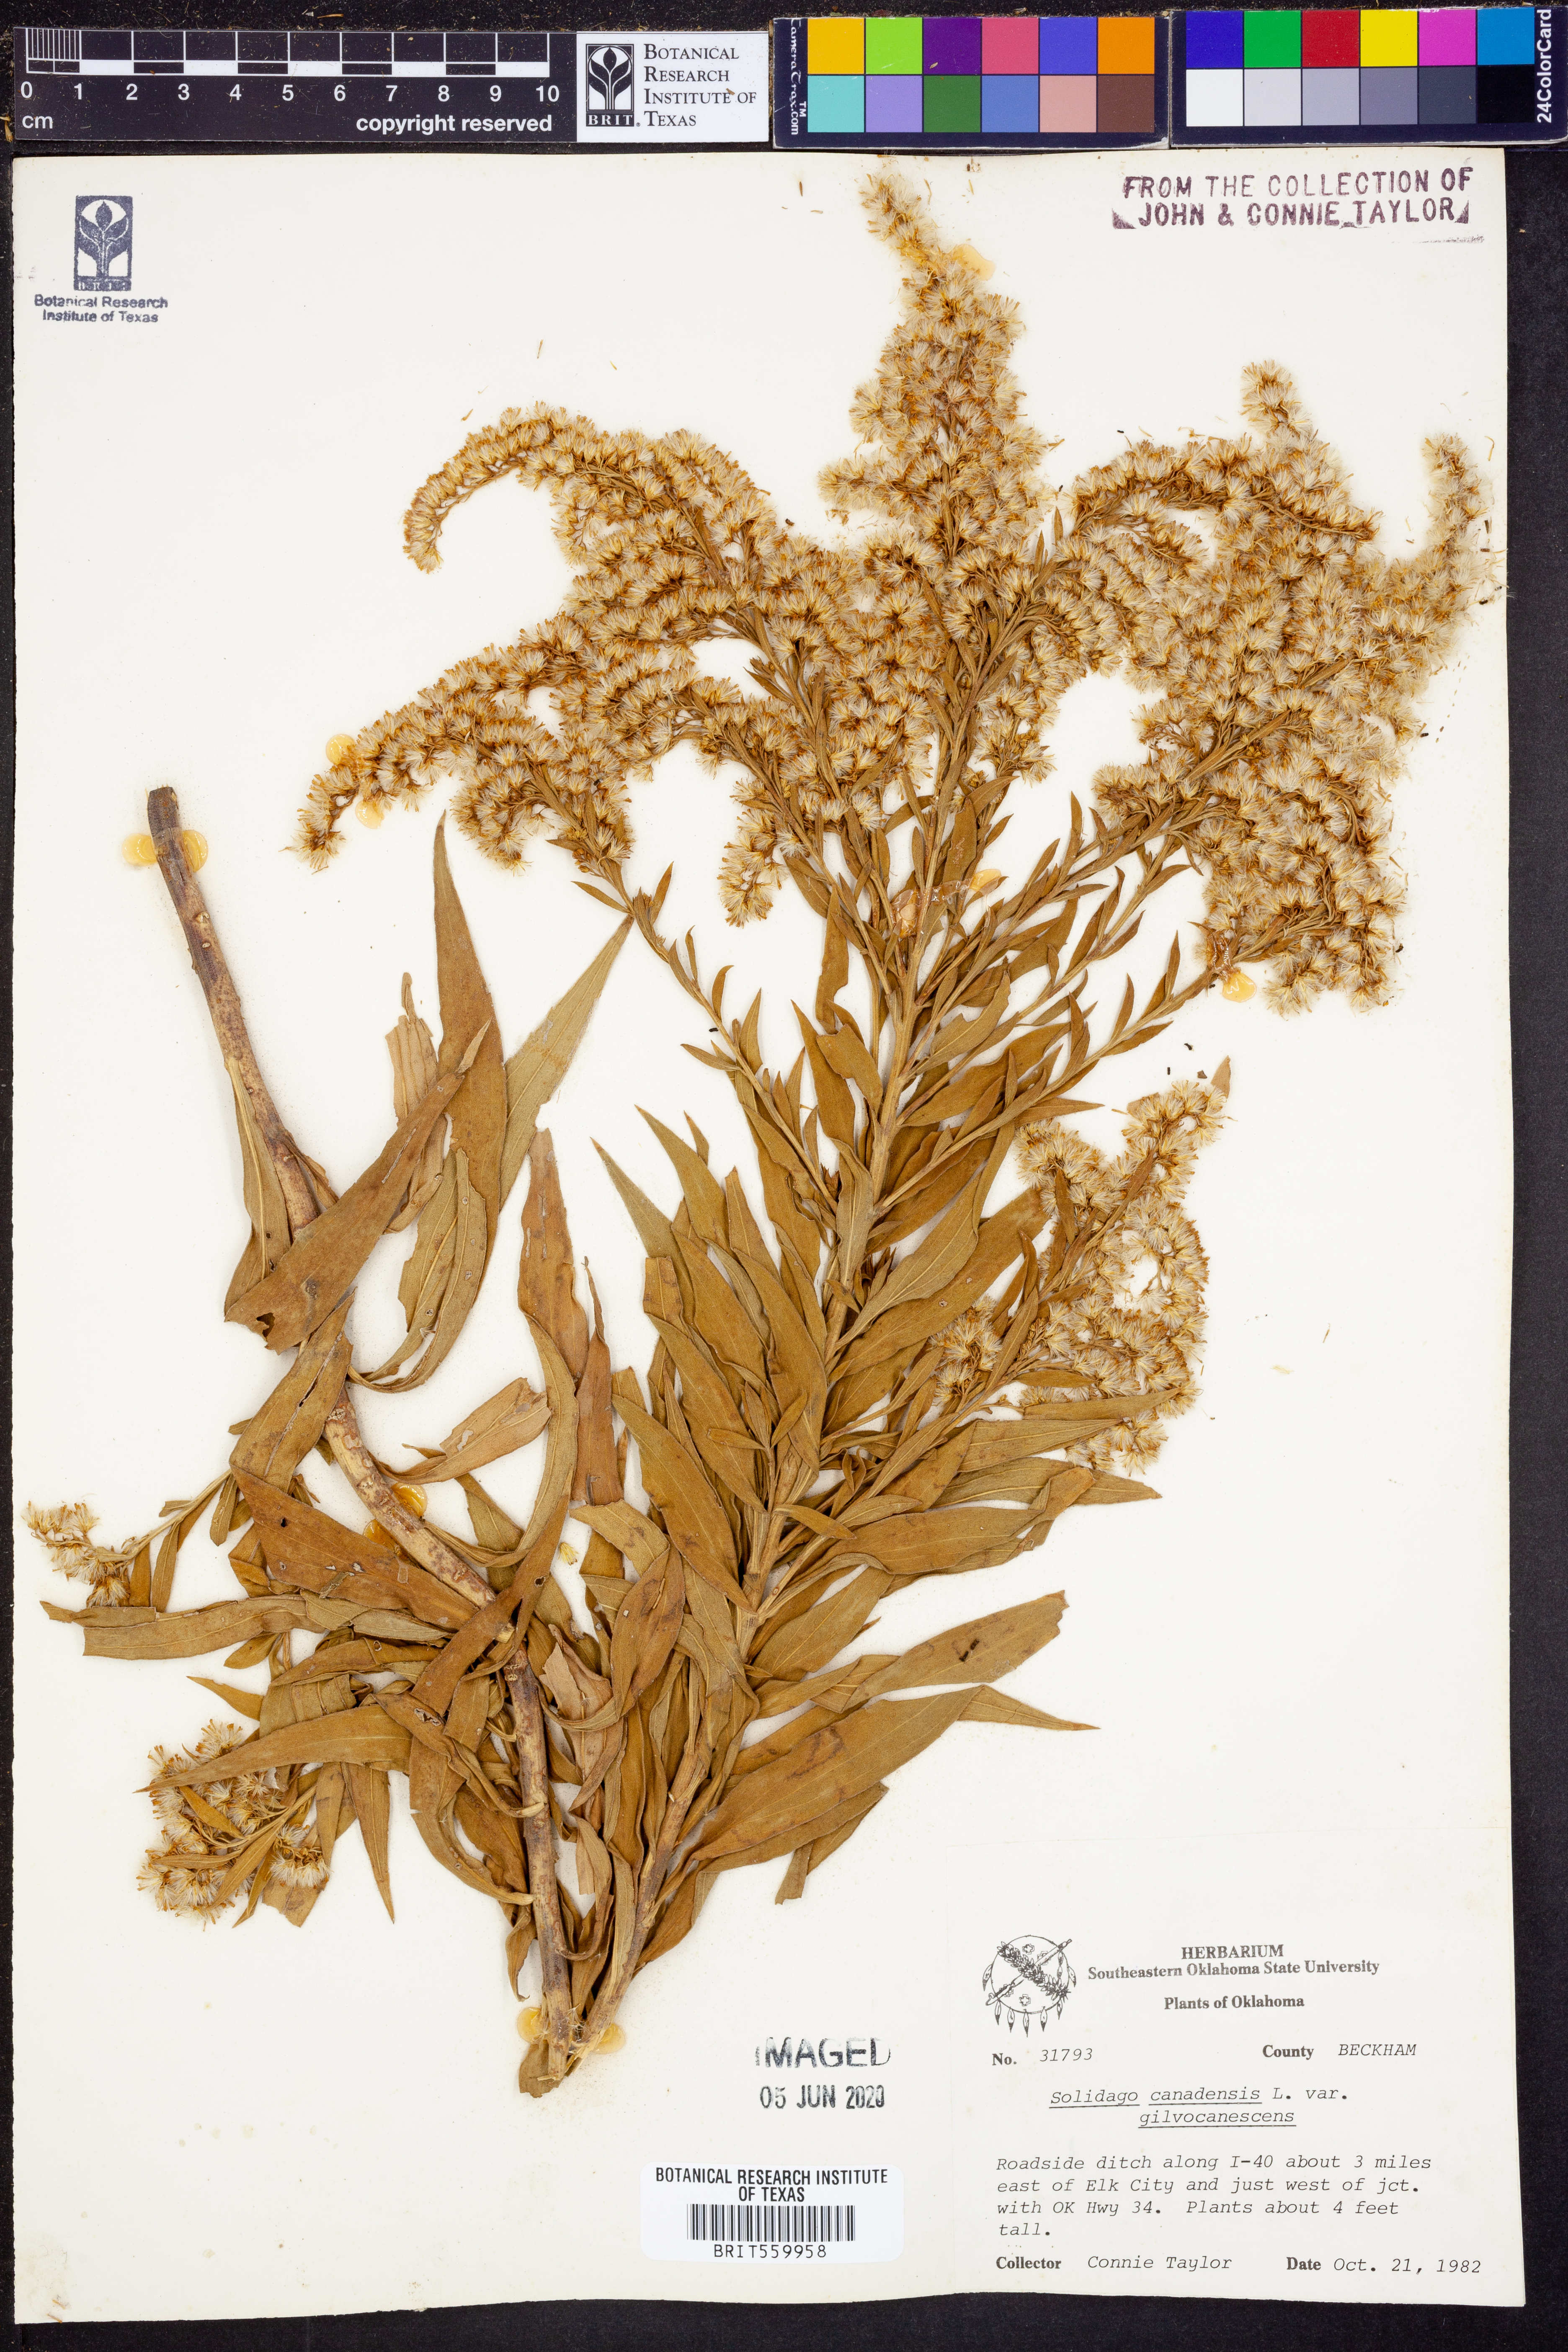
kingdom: Plantae
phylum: Tracheophyta
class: Magnoliopsida
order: Asterales
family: Asteraceae
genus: Solidago
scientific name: Solidago altissima
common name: Late goldenrod
